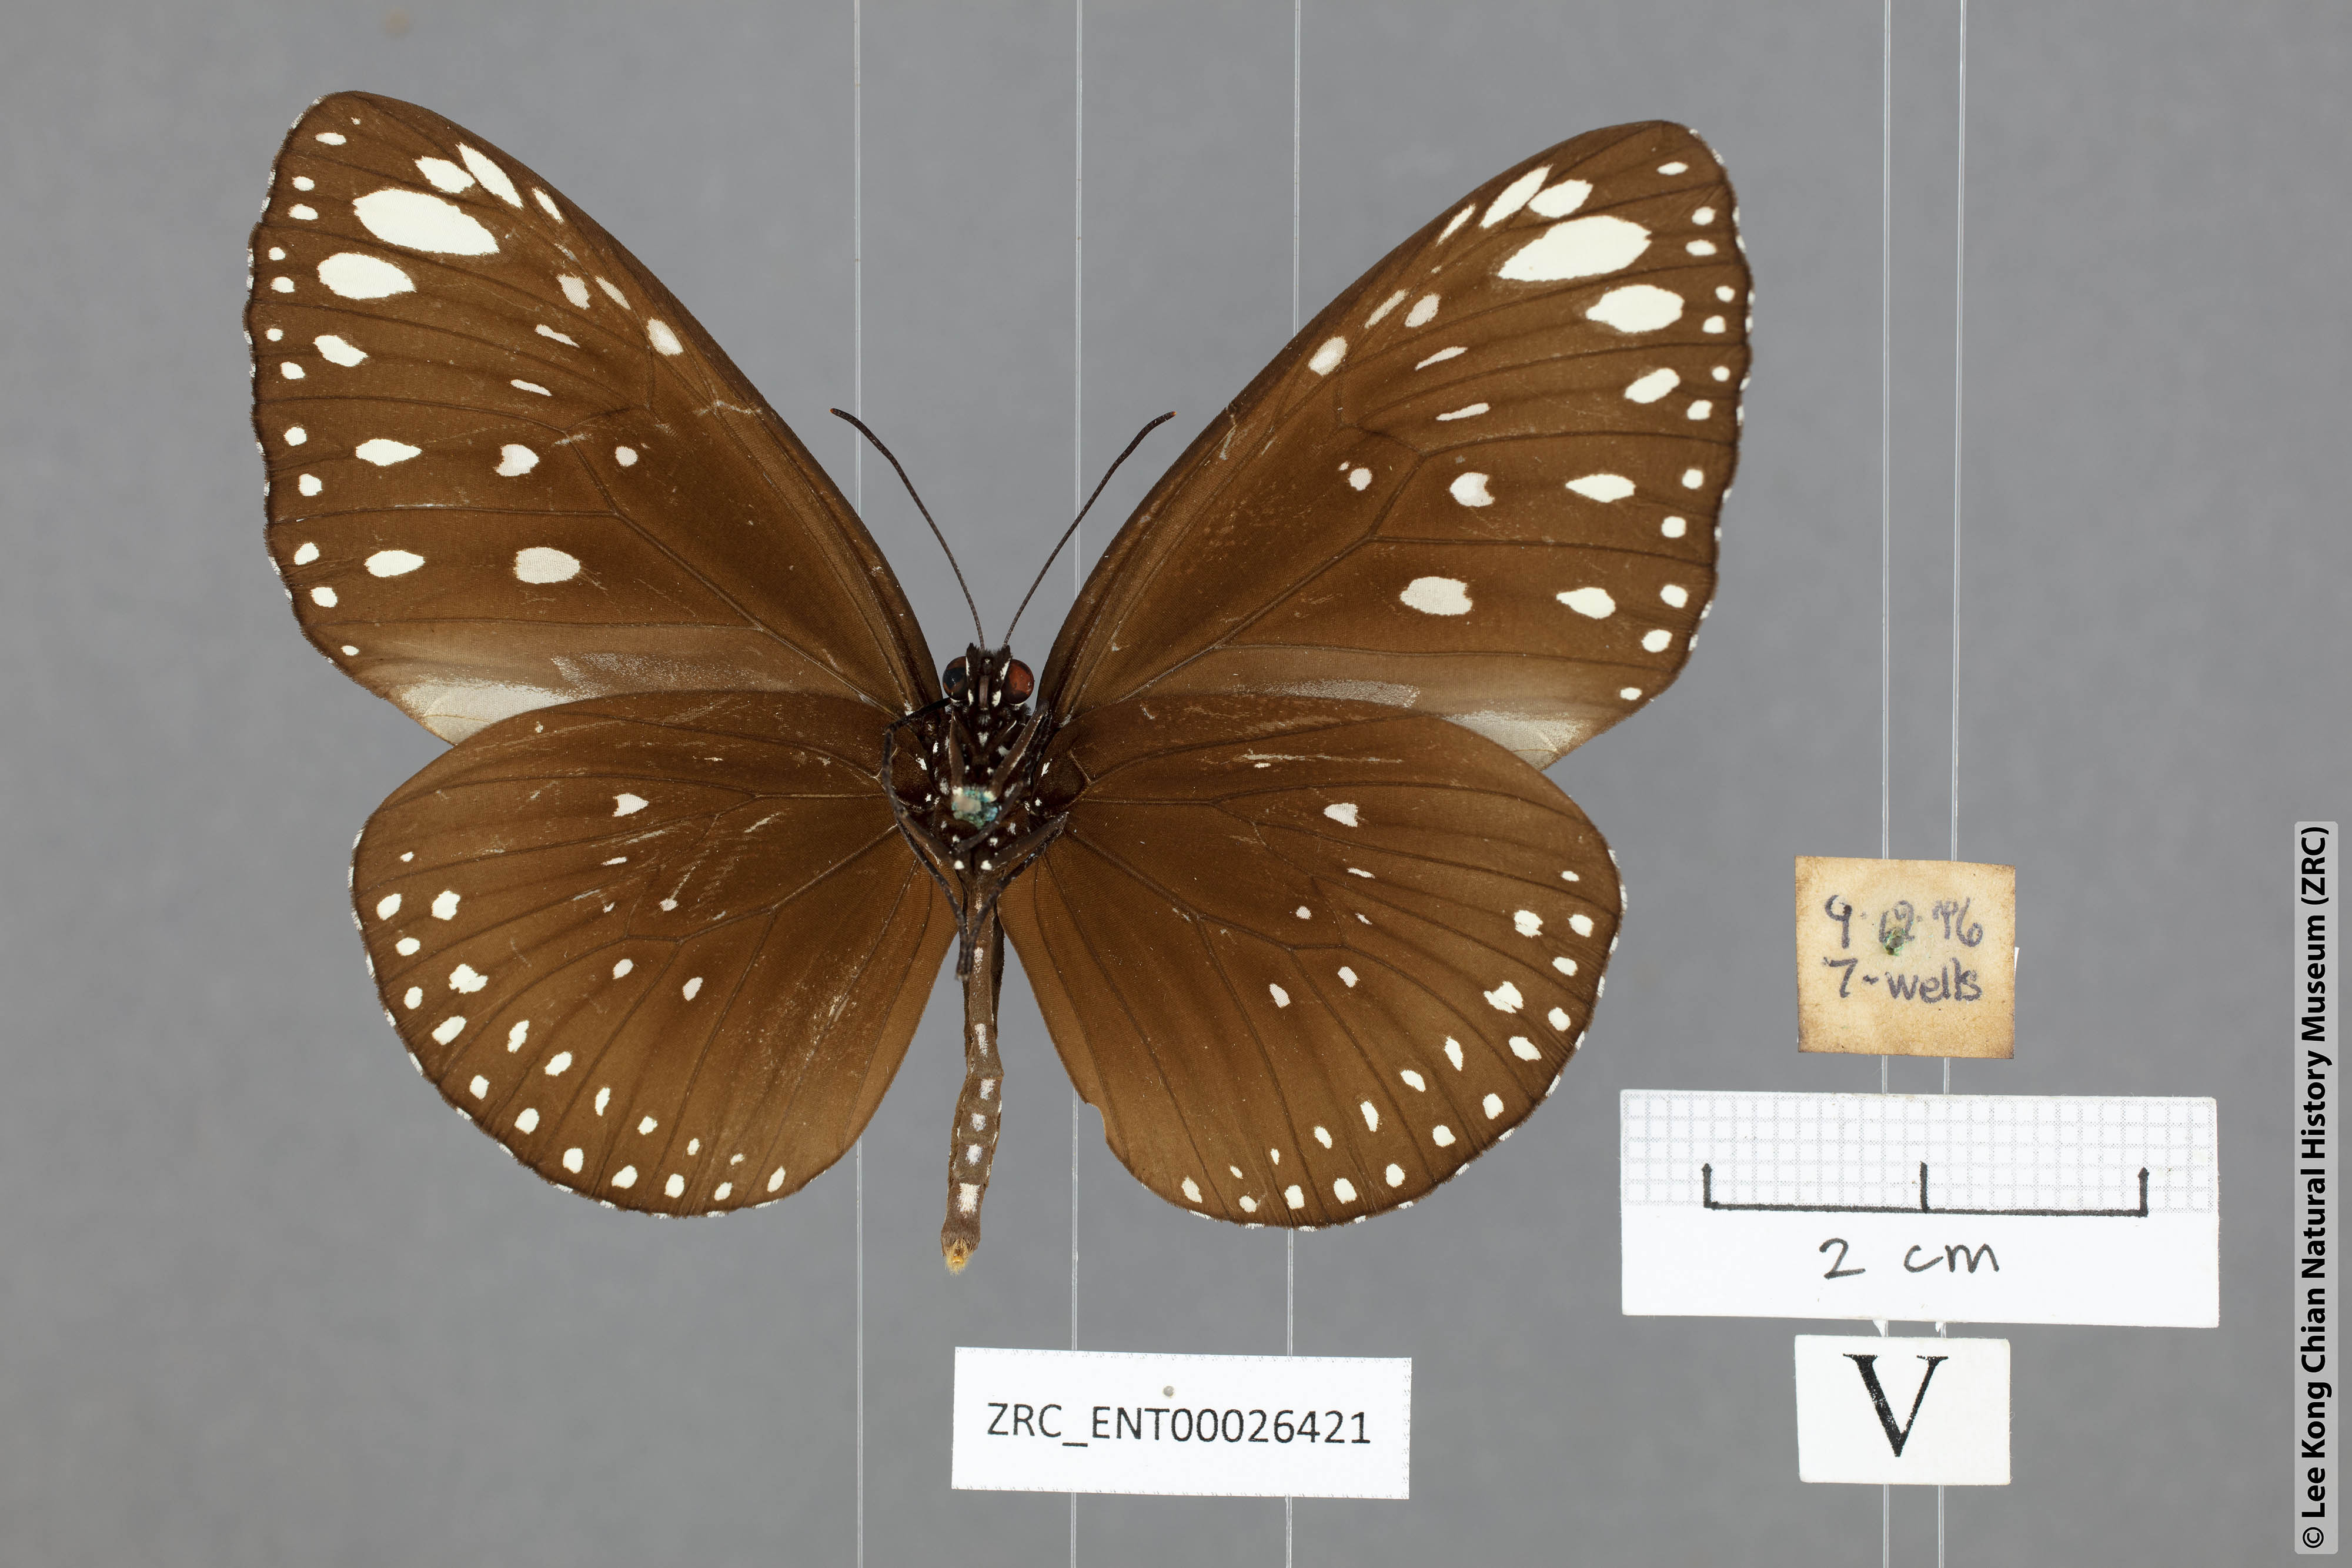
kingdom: Animalia
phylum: Arthropoda
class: Insecta
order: Lepidoptera
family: Nymphalidae
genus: Euploea
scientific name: Euploea crameri
